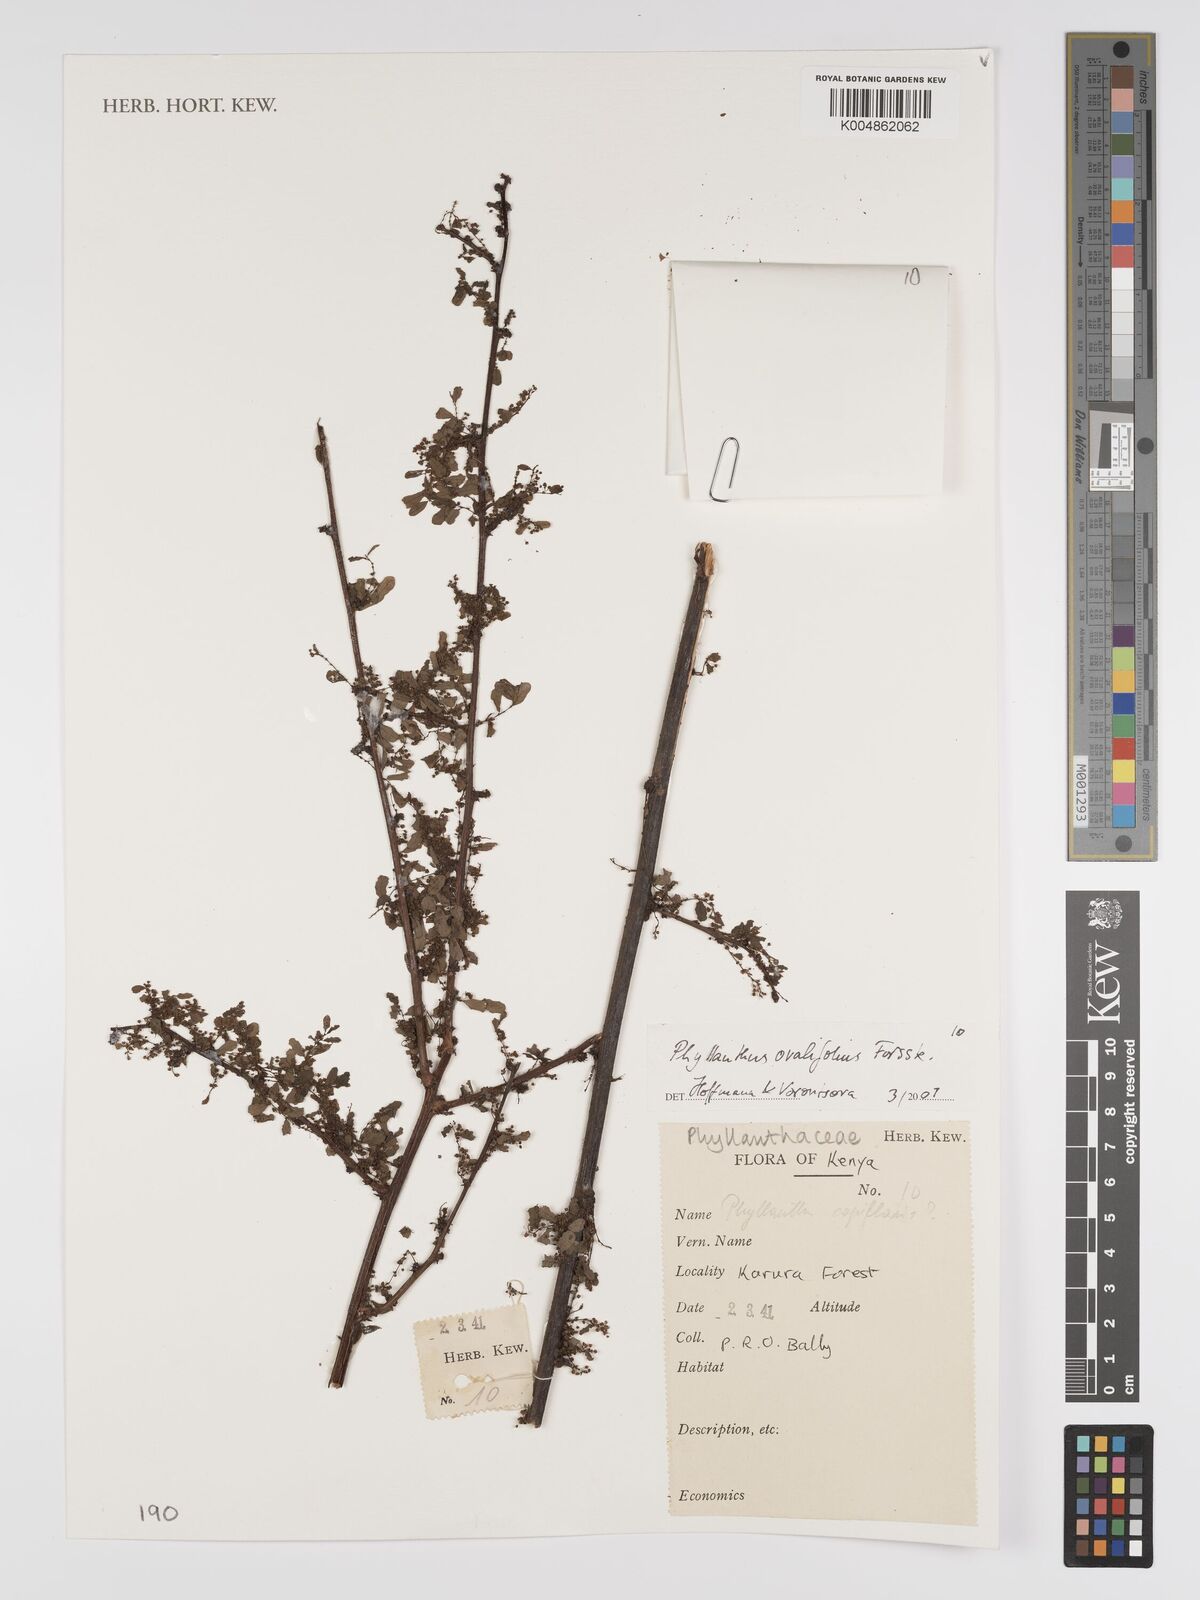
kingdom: Plantae
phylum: Tracheophyta
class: Magnoliopsida
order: Malpighiales
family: Phyllanthaceae
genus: Phyllanthus
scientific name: Phyllanthus ovalifolius
